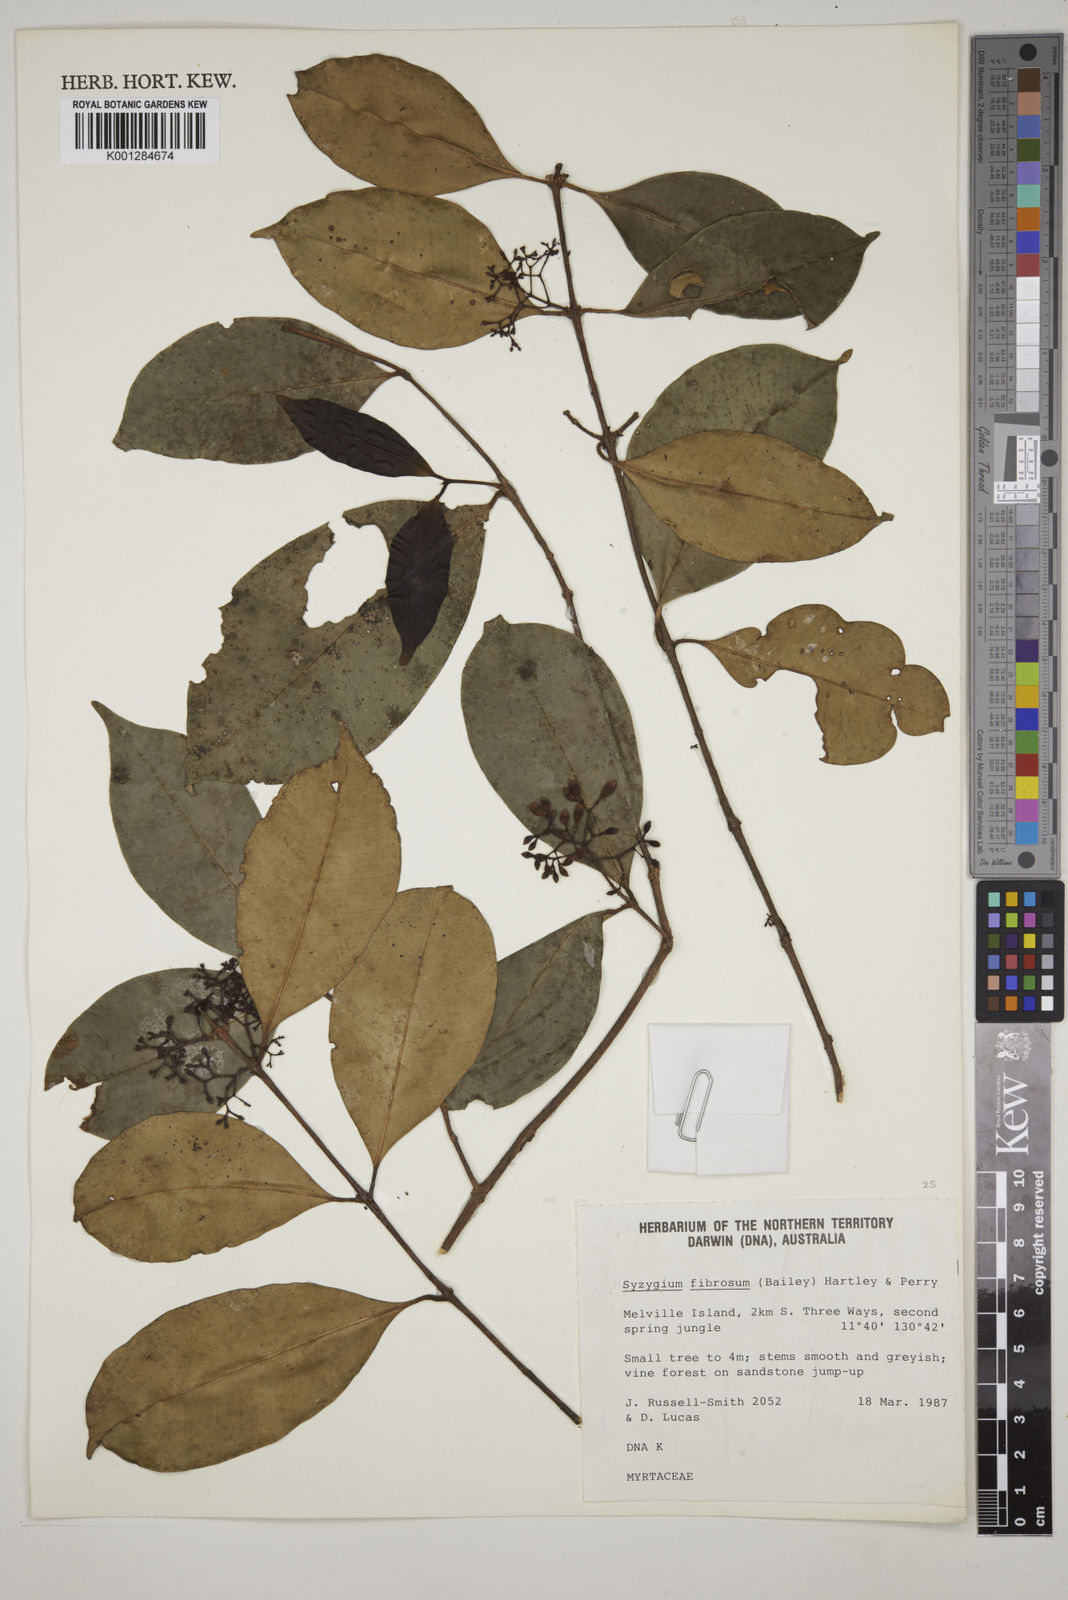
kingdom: Plantae
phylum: Tracheophyta
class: Magnoliopsida
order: Myrtales
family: Myrtaceae
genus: Syzygium
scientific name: Syzygium fibrosum
